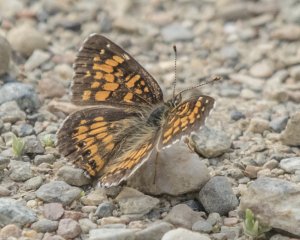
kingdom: Animalia
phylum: Arthropoda
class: Insecta
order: Lepidoptera
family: Nymphalidae
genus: Chlosyne
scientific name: Chlosyne nycteis
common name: Silvery Checkerspot
